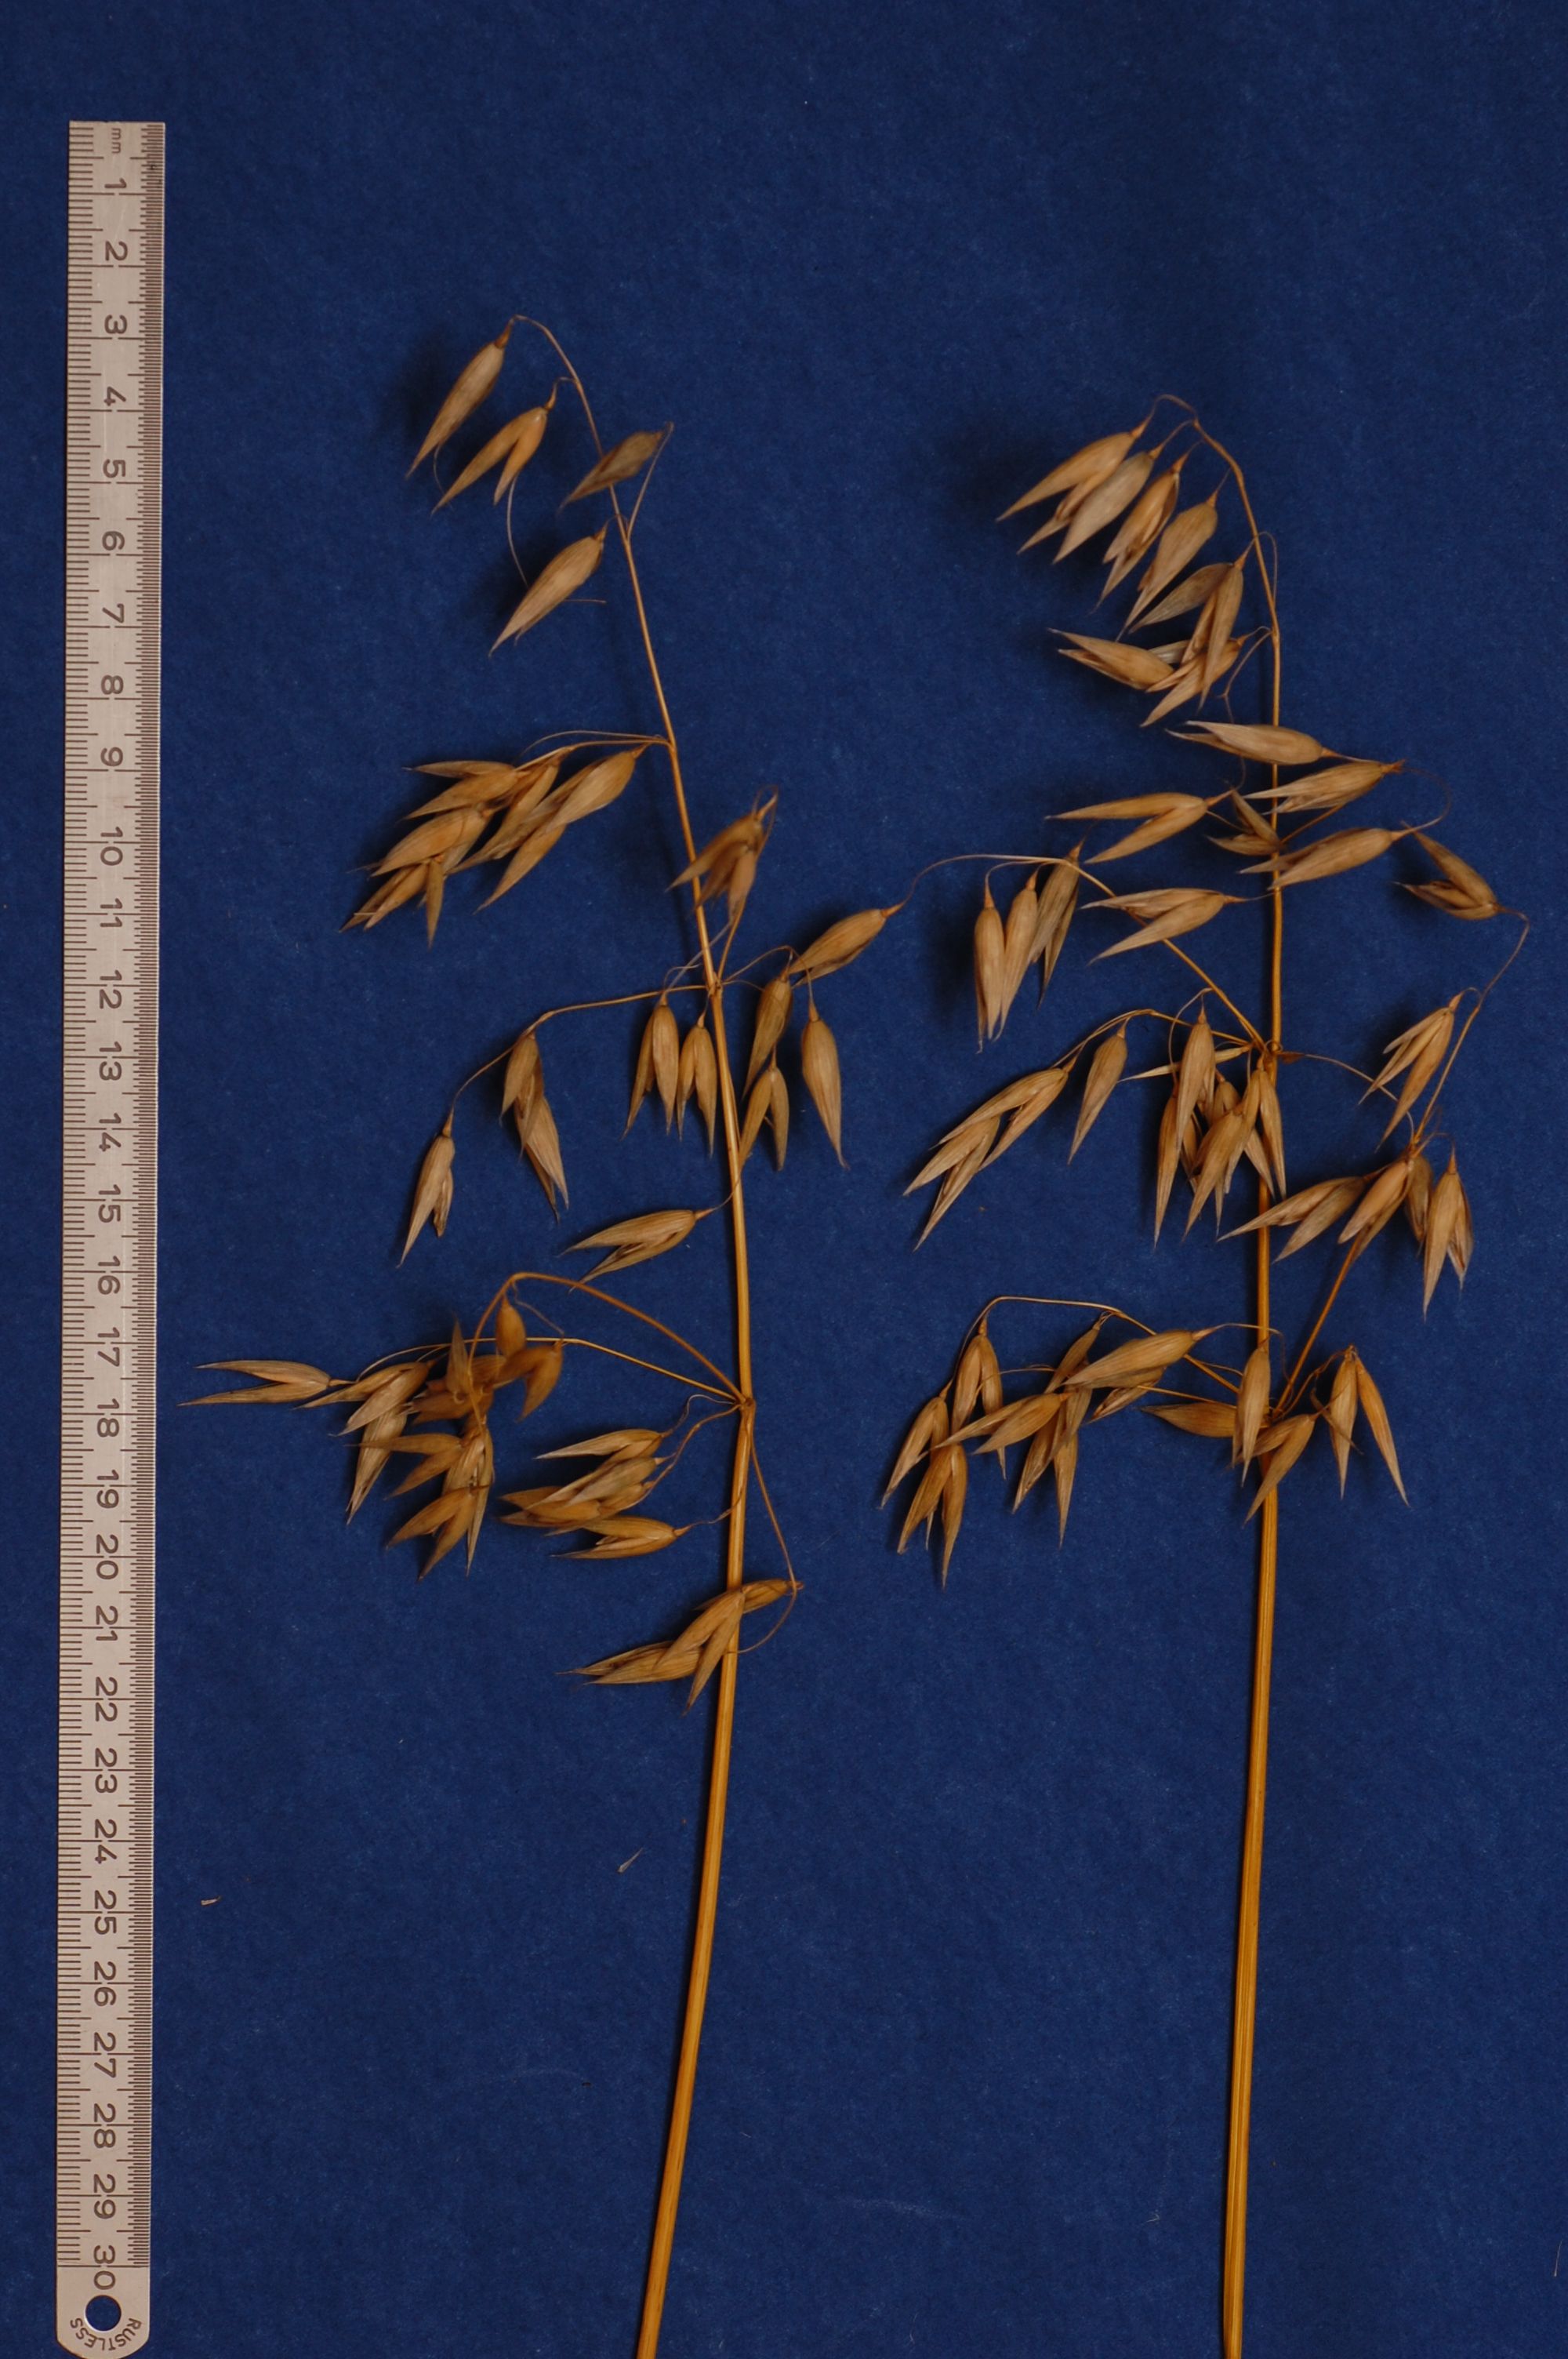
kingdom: Plantae
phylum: Tracheophyta
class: Liliopsida
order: Poales
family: Poaceae
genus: Avena
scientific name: Avena sativa
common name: Oat
